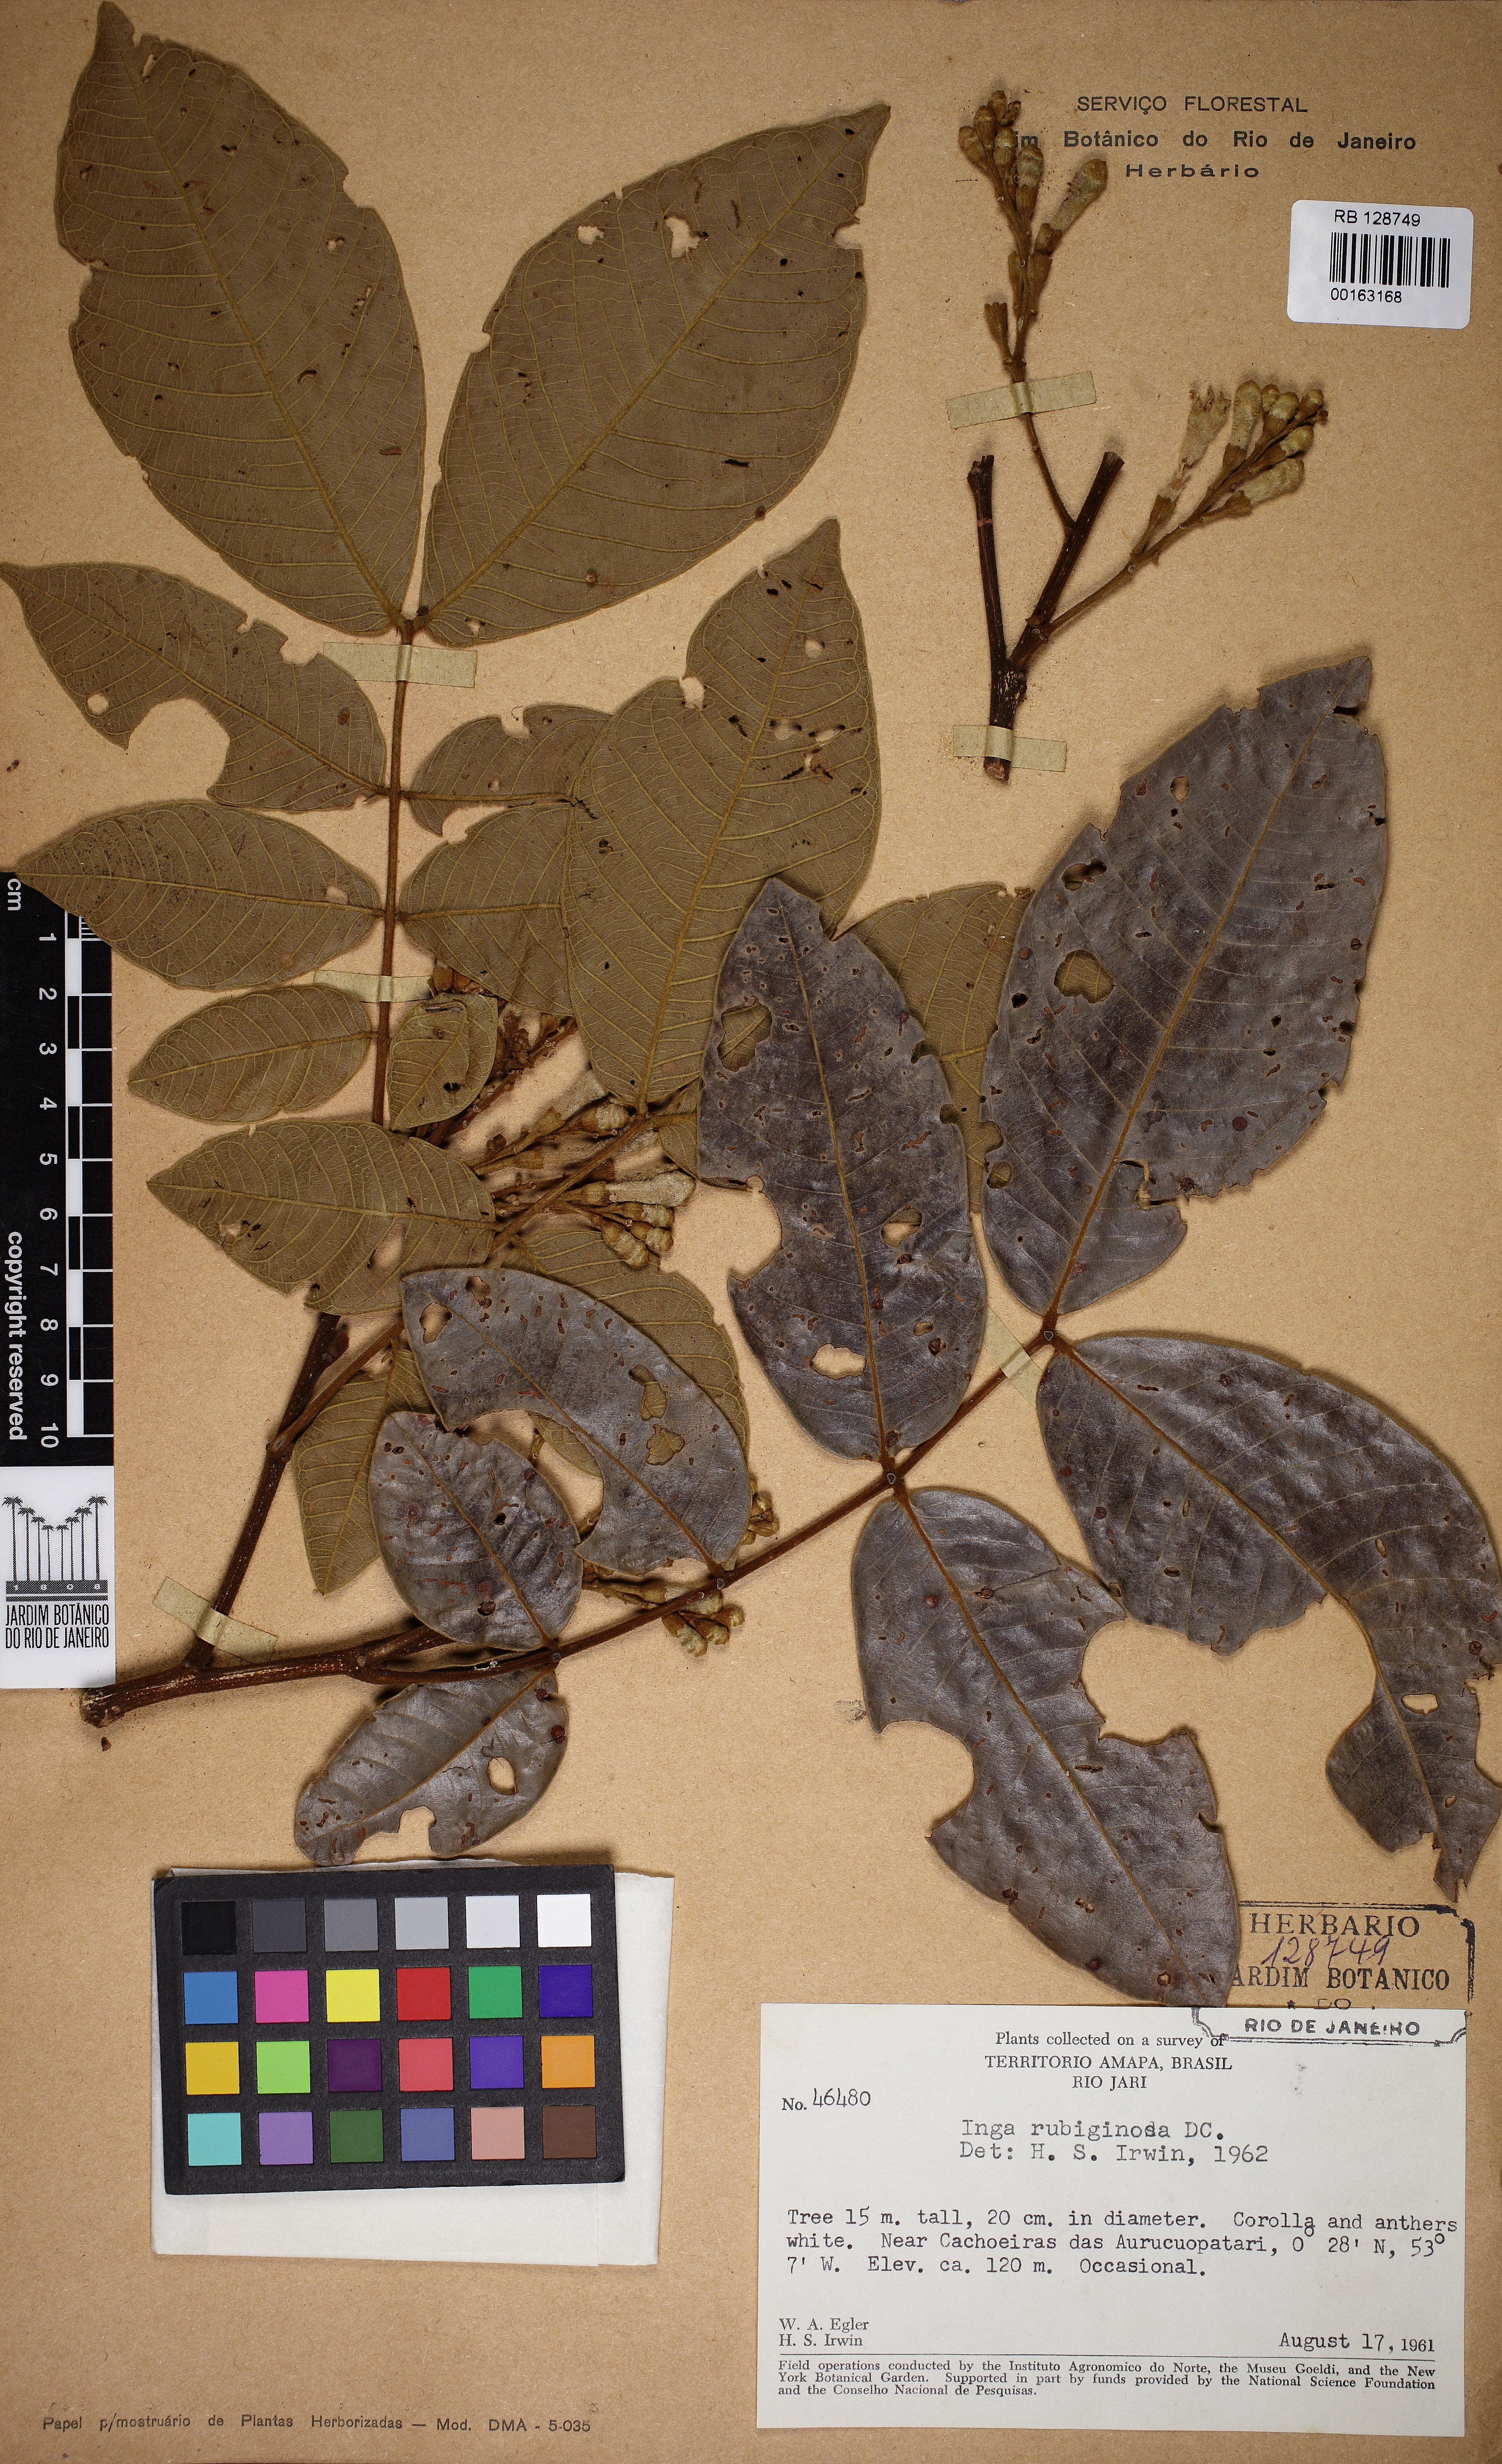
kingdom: Plantae
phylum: Tracheophyta
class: Magnoliopsida
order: Fabales
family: Fabaceae
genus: Inga
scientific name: Inga rubiginosa
